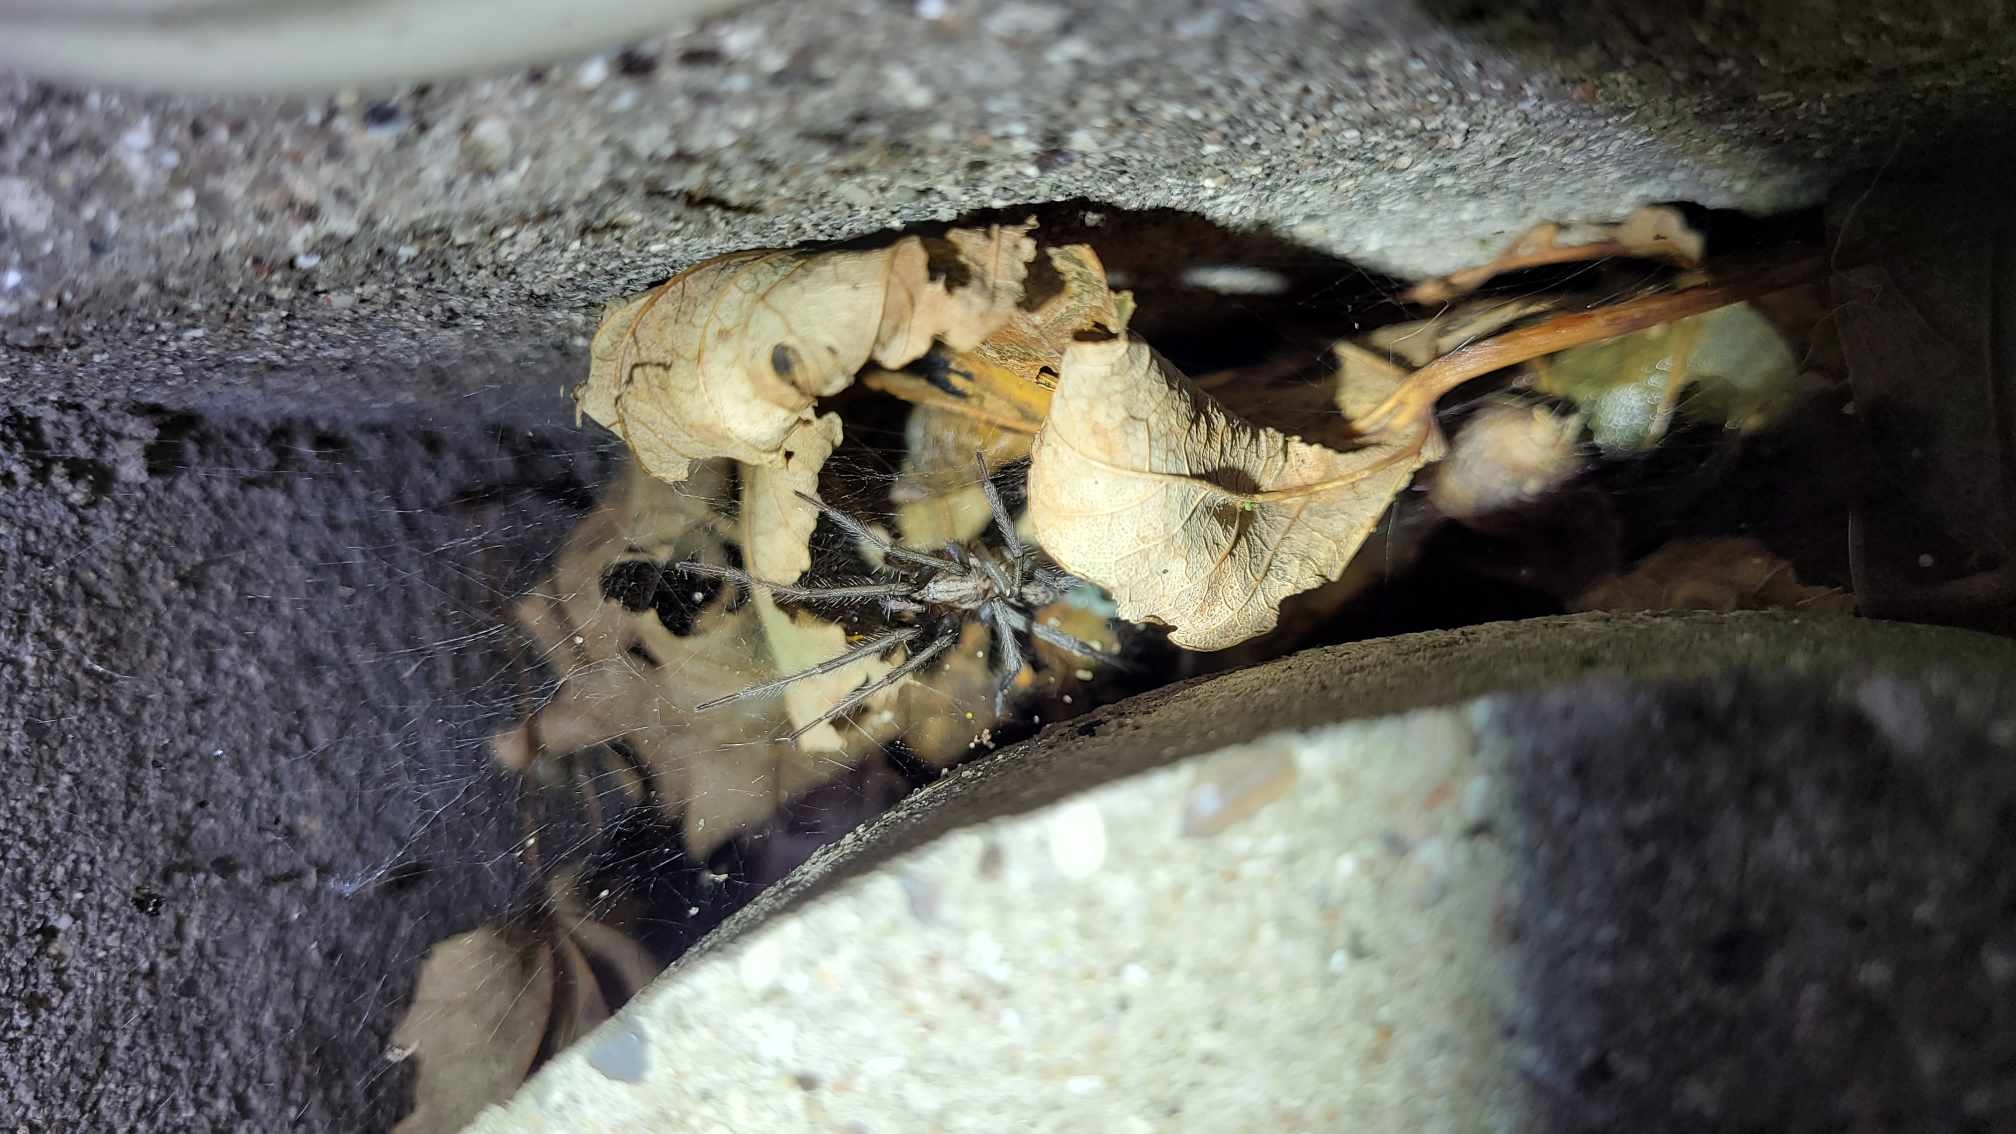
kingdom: Animalia
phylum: Arthropoda
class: Arachnida
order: Araneae
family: Agelenidae
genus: Eratigena
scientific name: Eratigena atrica
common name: Stor husedderkop
